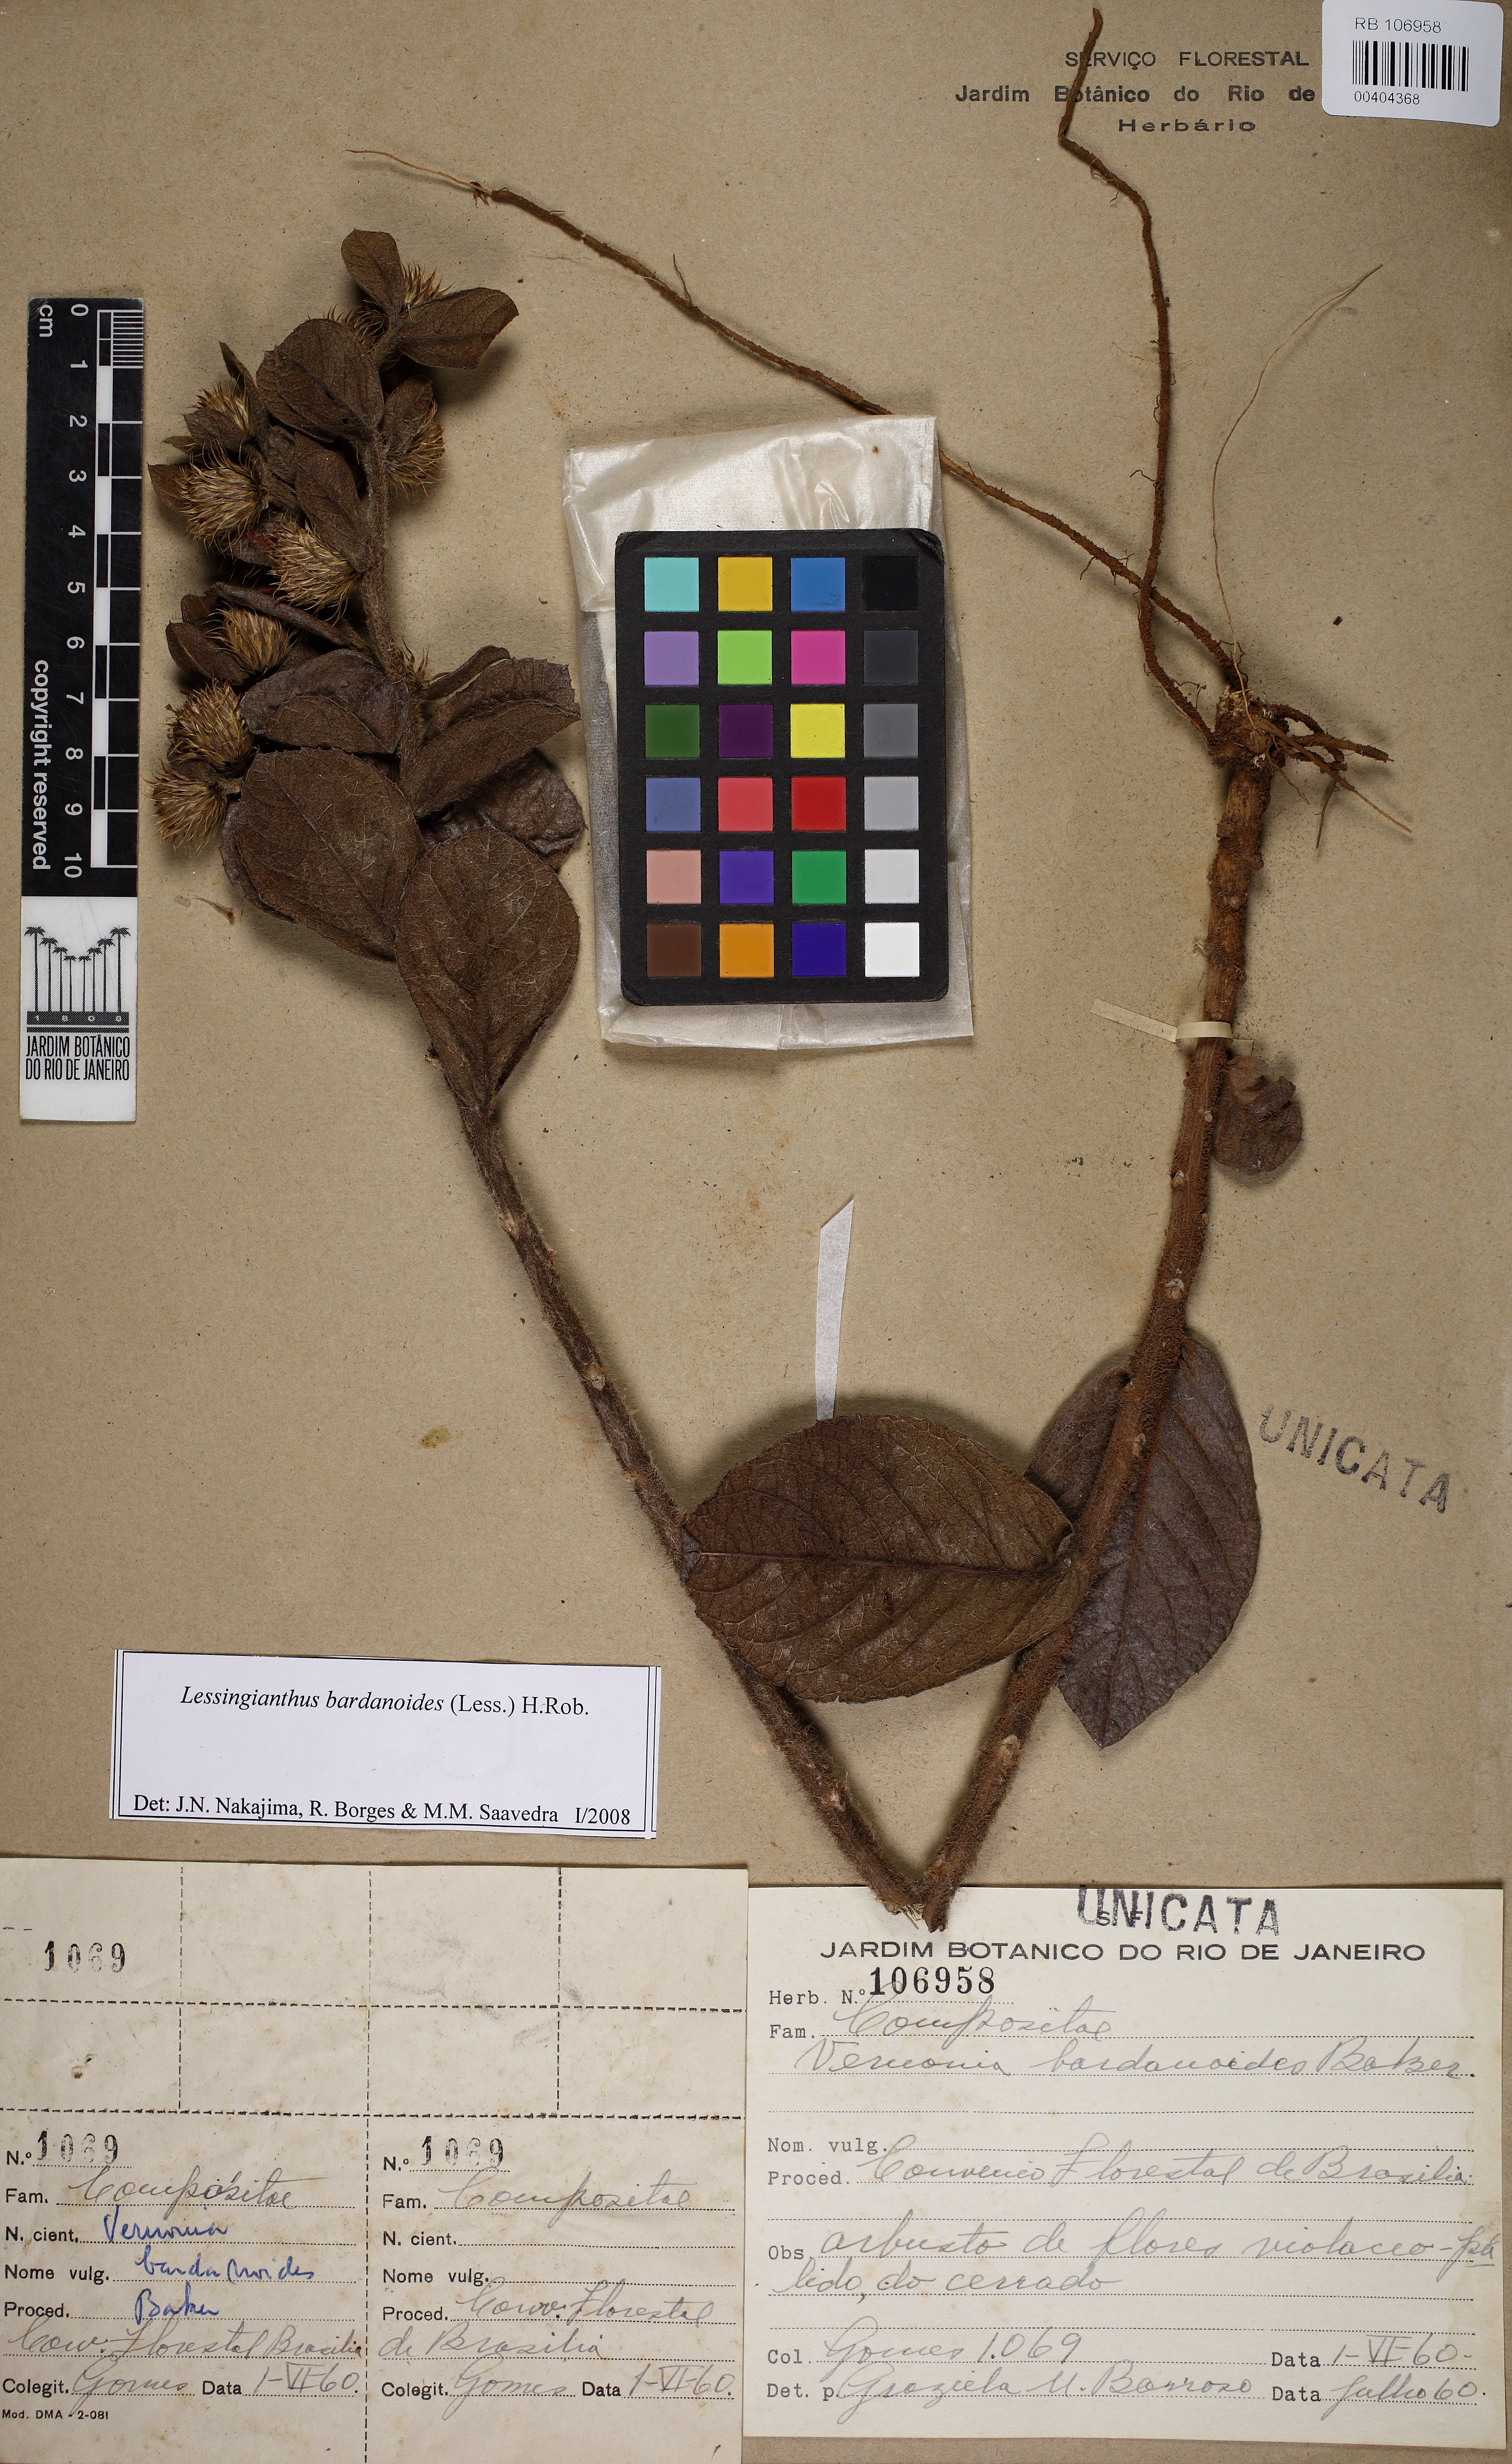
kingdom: Plantae
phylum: Tracheophyta
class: Magnoliopsida
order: Asterales
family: Asteraceae
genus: Lessingianthus
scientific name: Lessingianthus bardanioides
